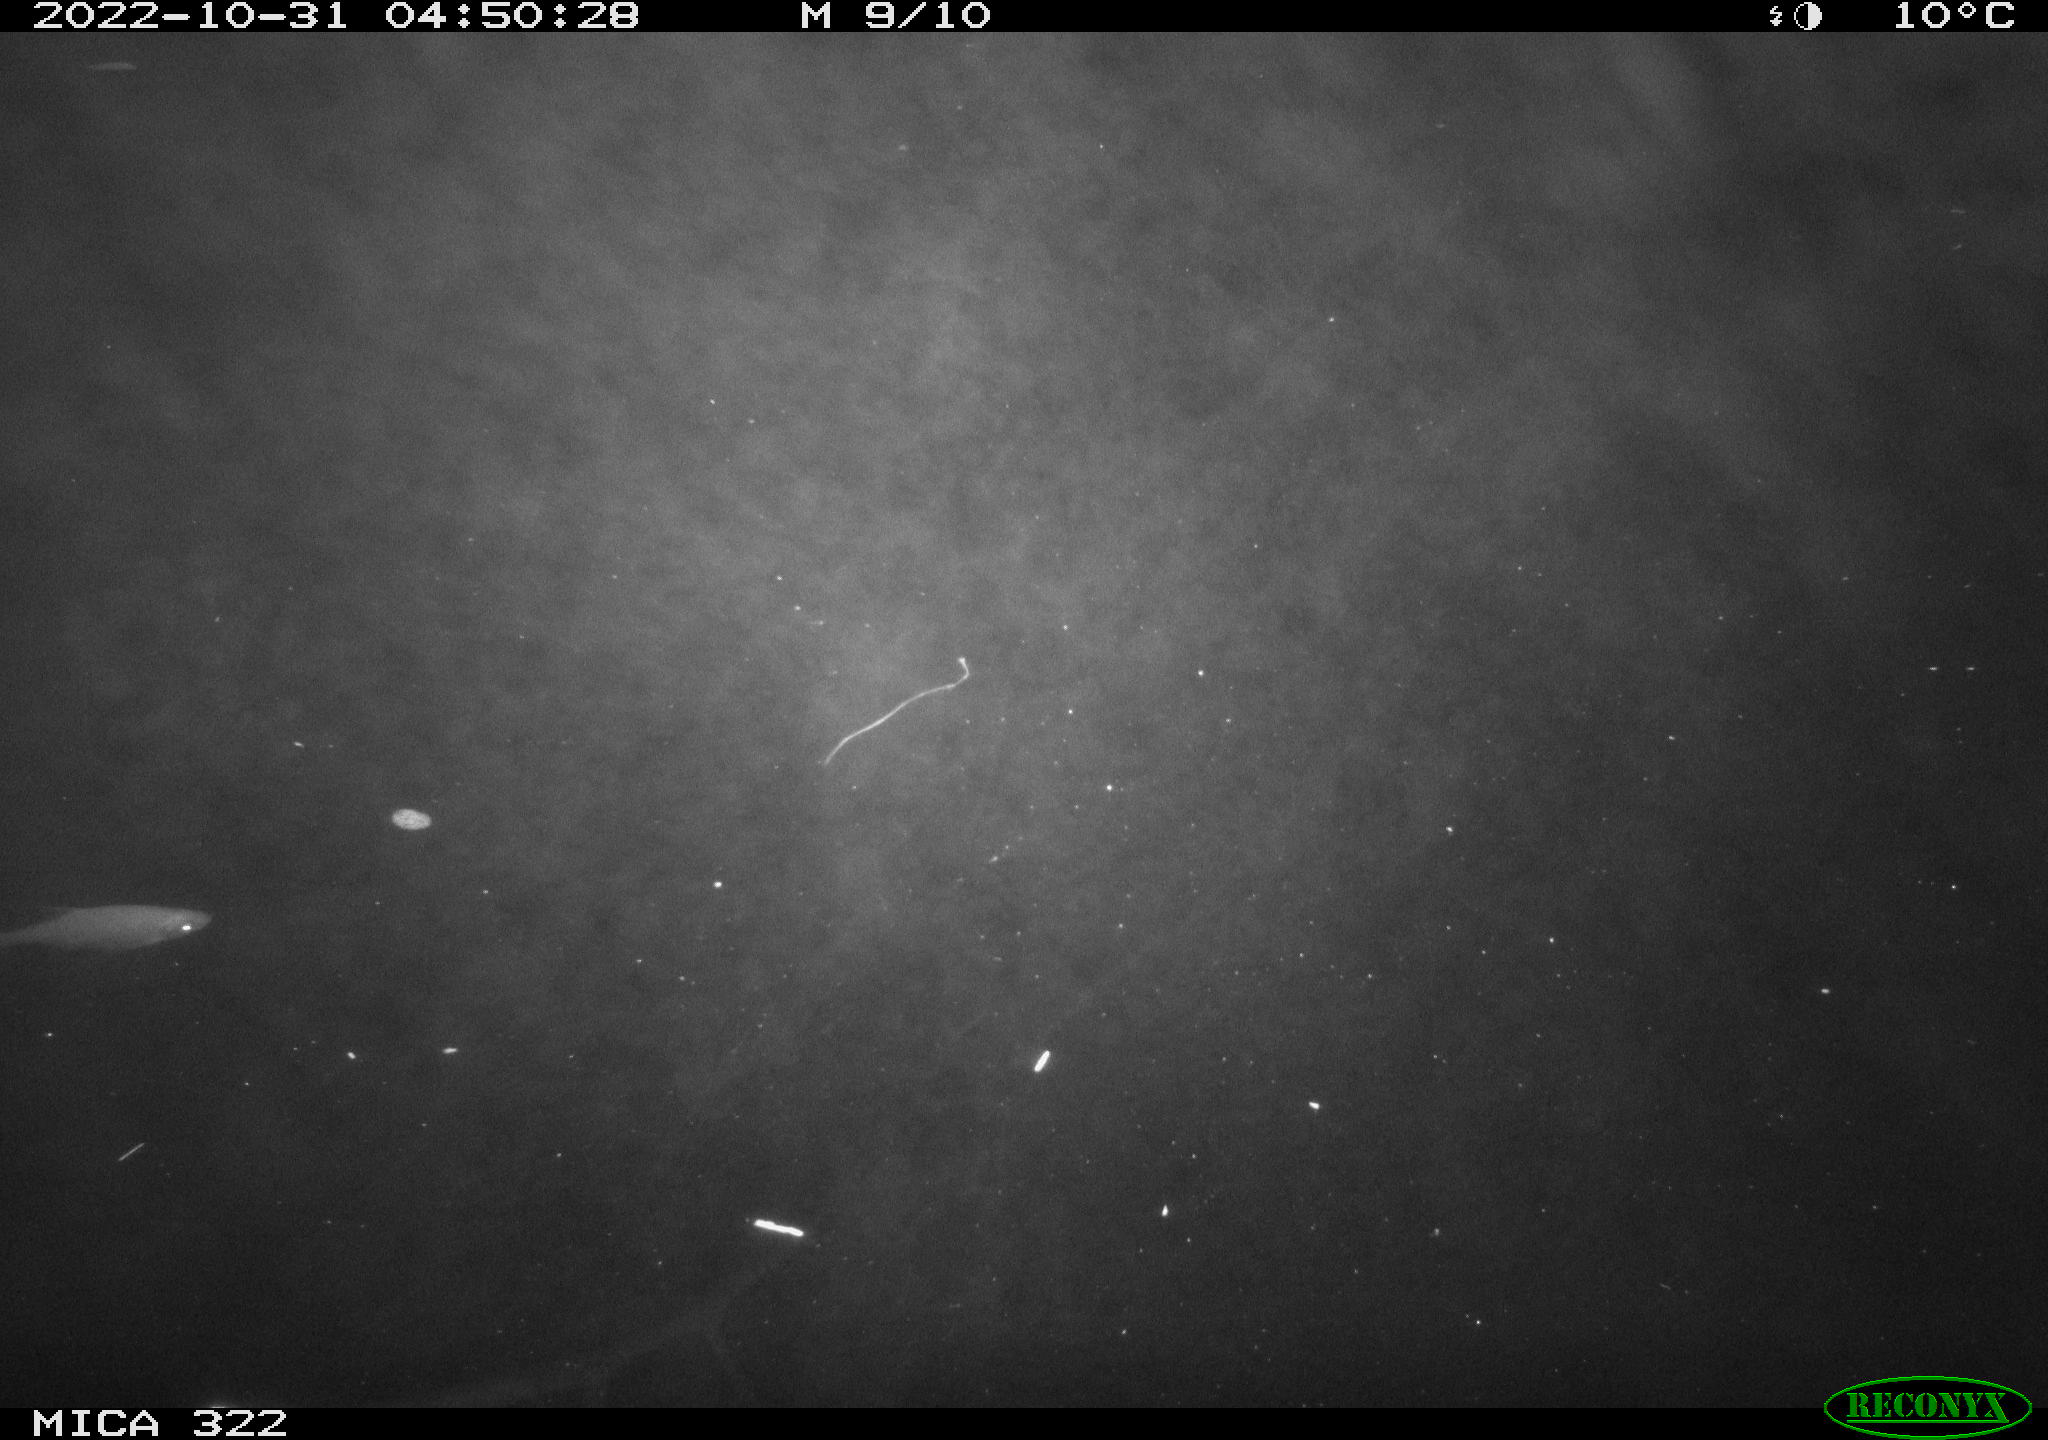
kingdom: Animalia
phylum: Chordata
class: Mammalia
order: Rodentia
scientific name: Rodentia
